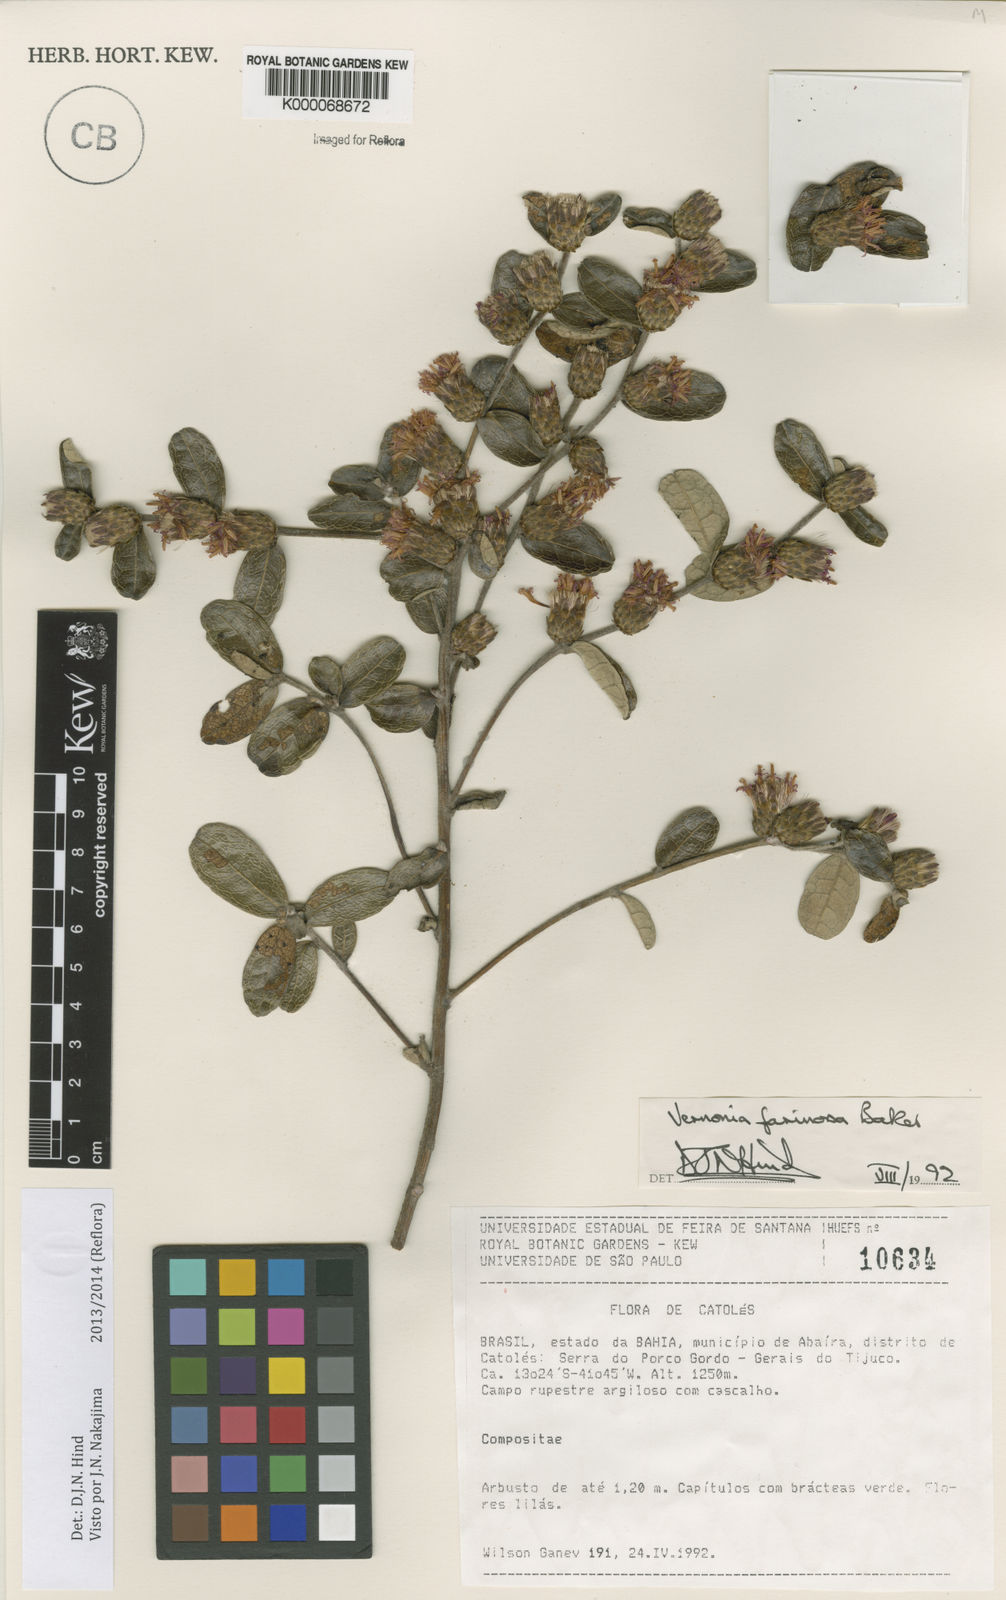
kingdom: Plantae
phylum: Tracheophyta
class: Magnoliopsida
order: Asterales
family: Asteraceae
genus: Lessingianthus
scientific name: Lessingianthus farinosus
